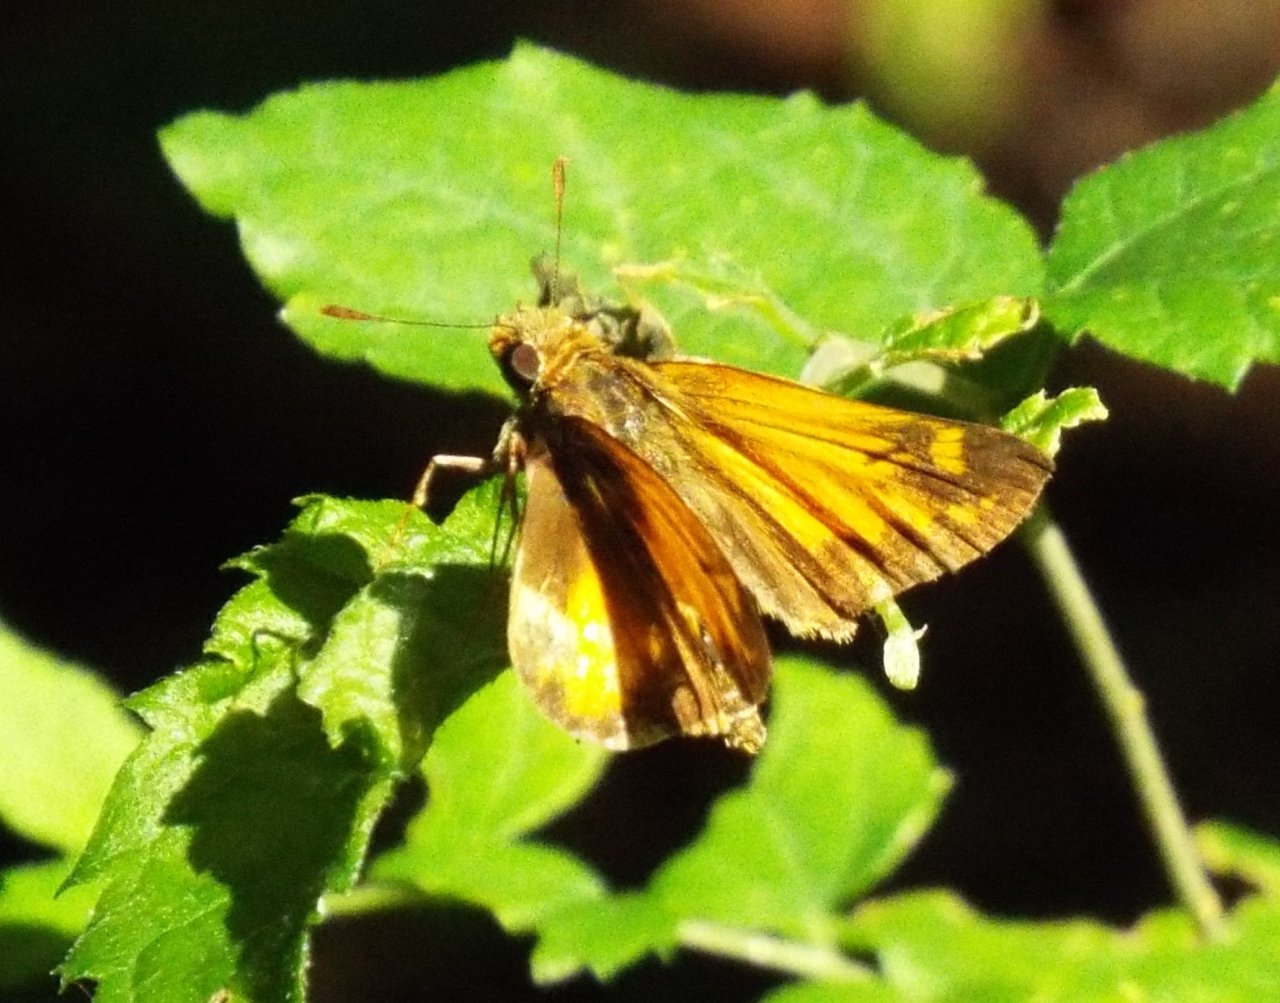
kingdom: Animalia
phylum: Arthropoda
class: Insecta
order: Lepidoptera
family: Hesperiidae
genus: Lon
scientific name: Lon zabulon
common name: Zabulon Skipper
